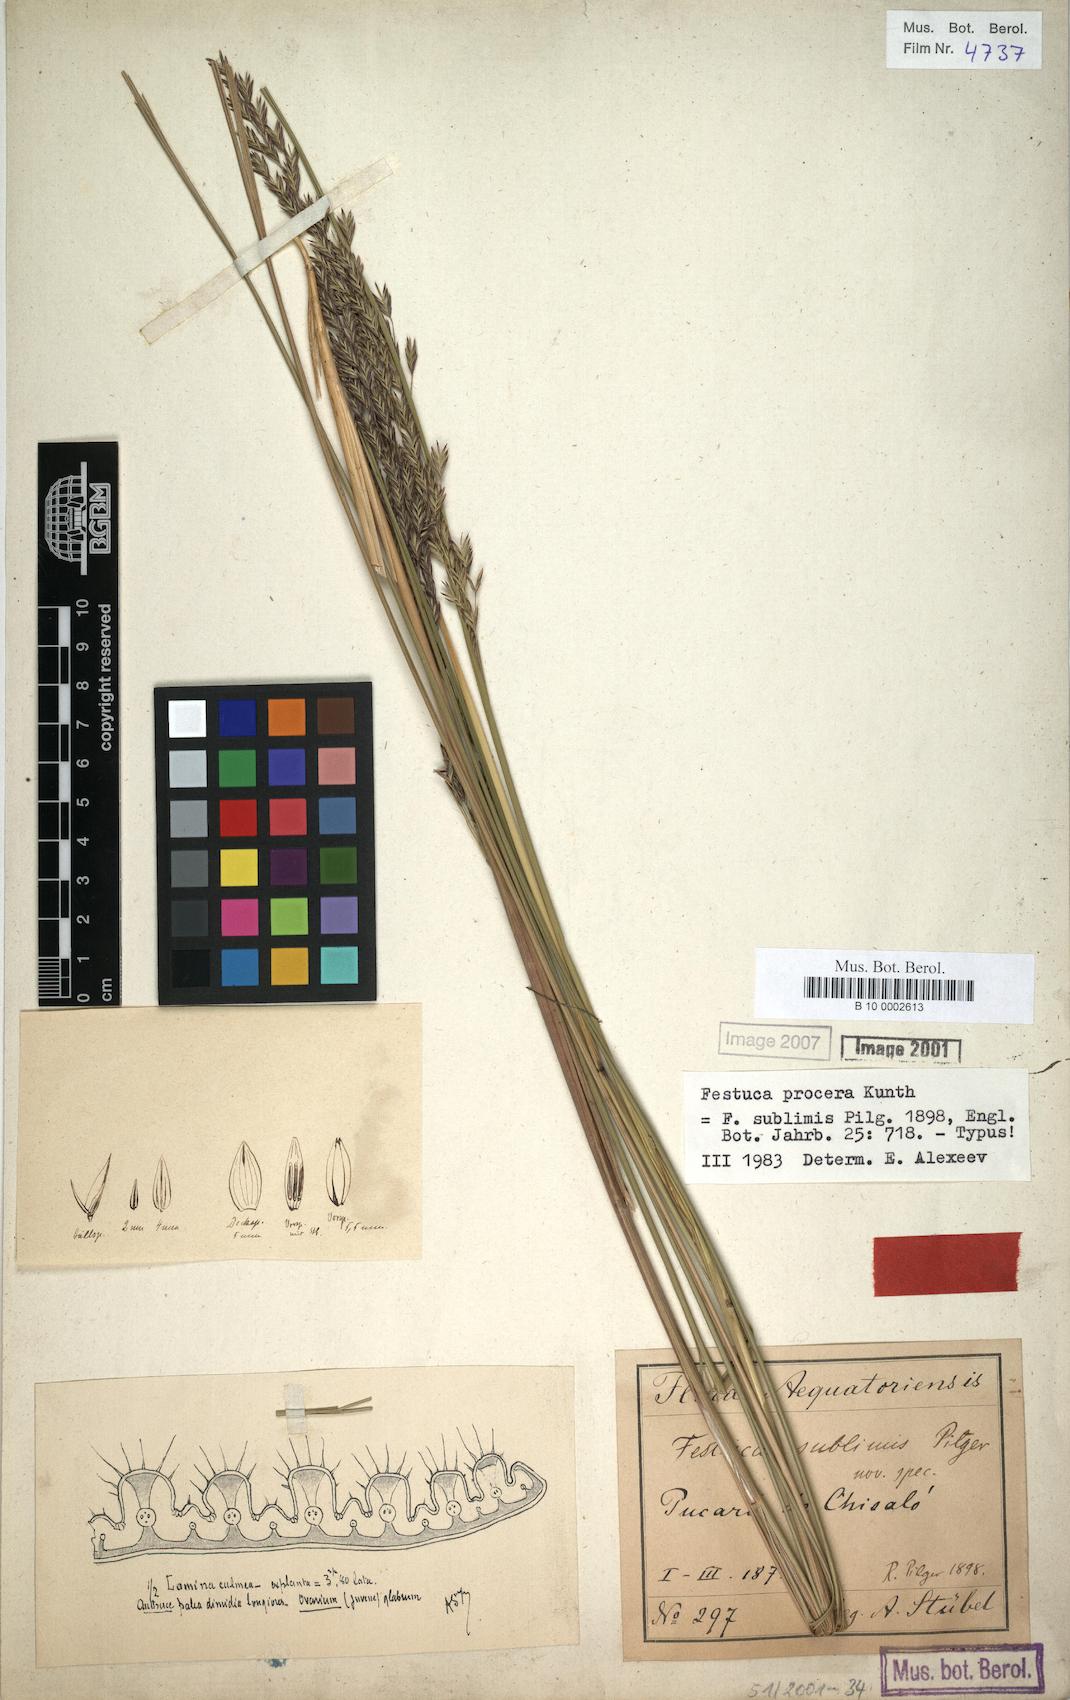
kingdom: Plantae
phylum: Tracheophyta
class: Liliopsida
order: Poales
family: Poaceae
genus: Festuca
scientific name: Festuca procera
